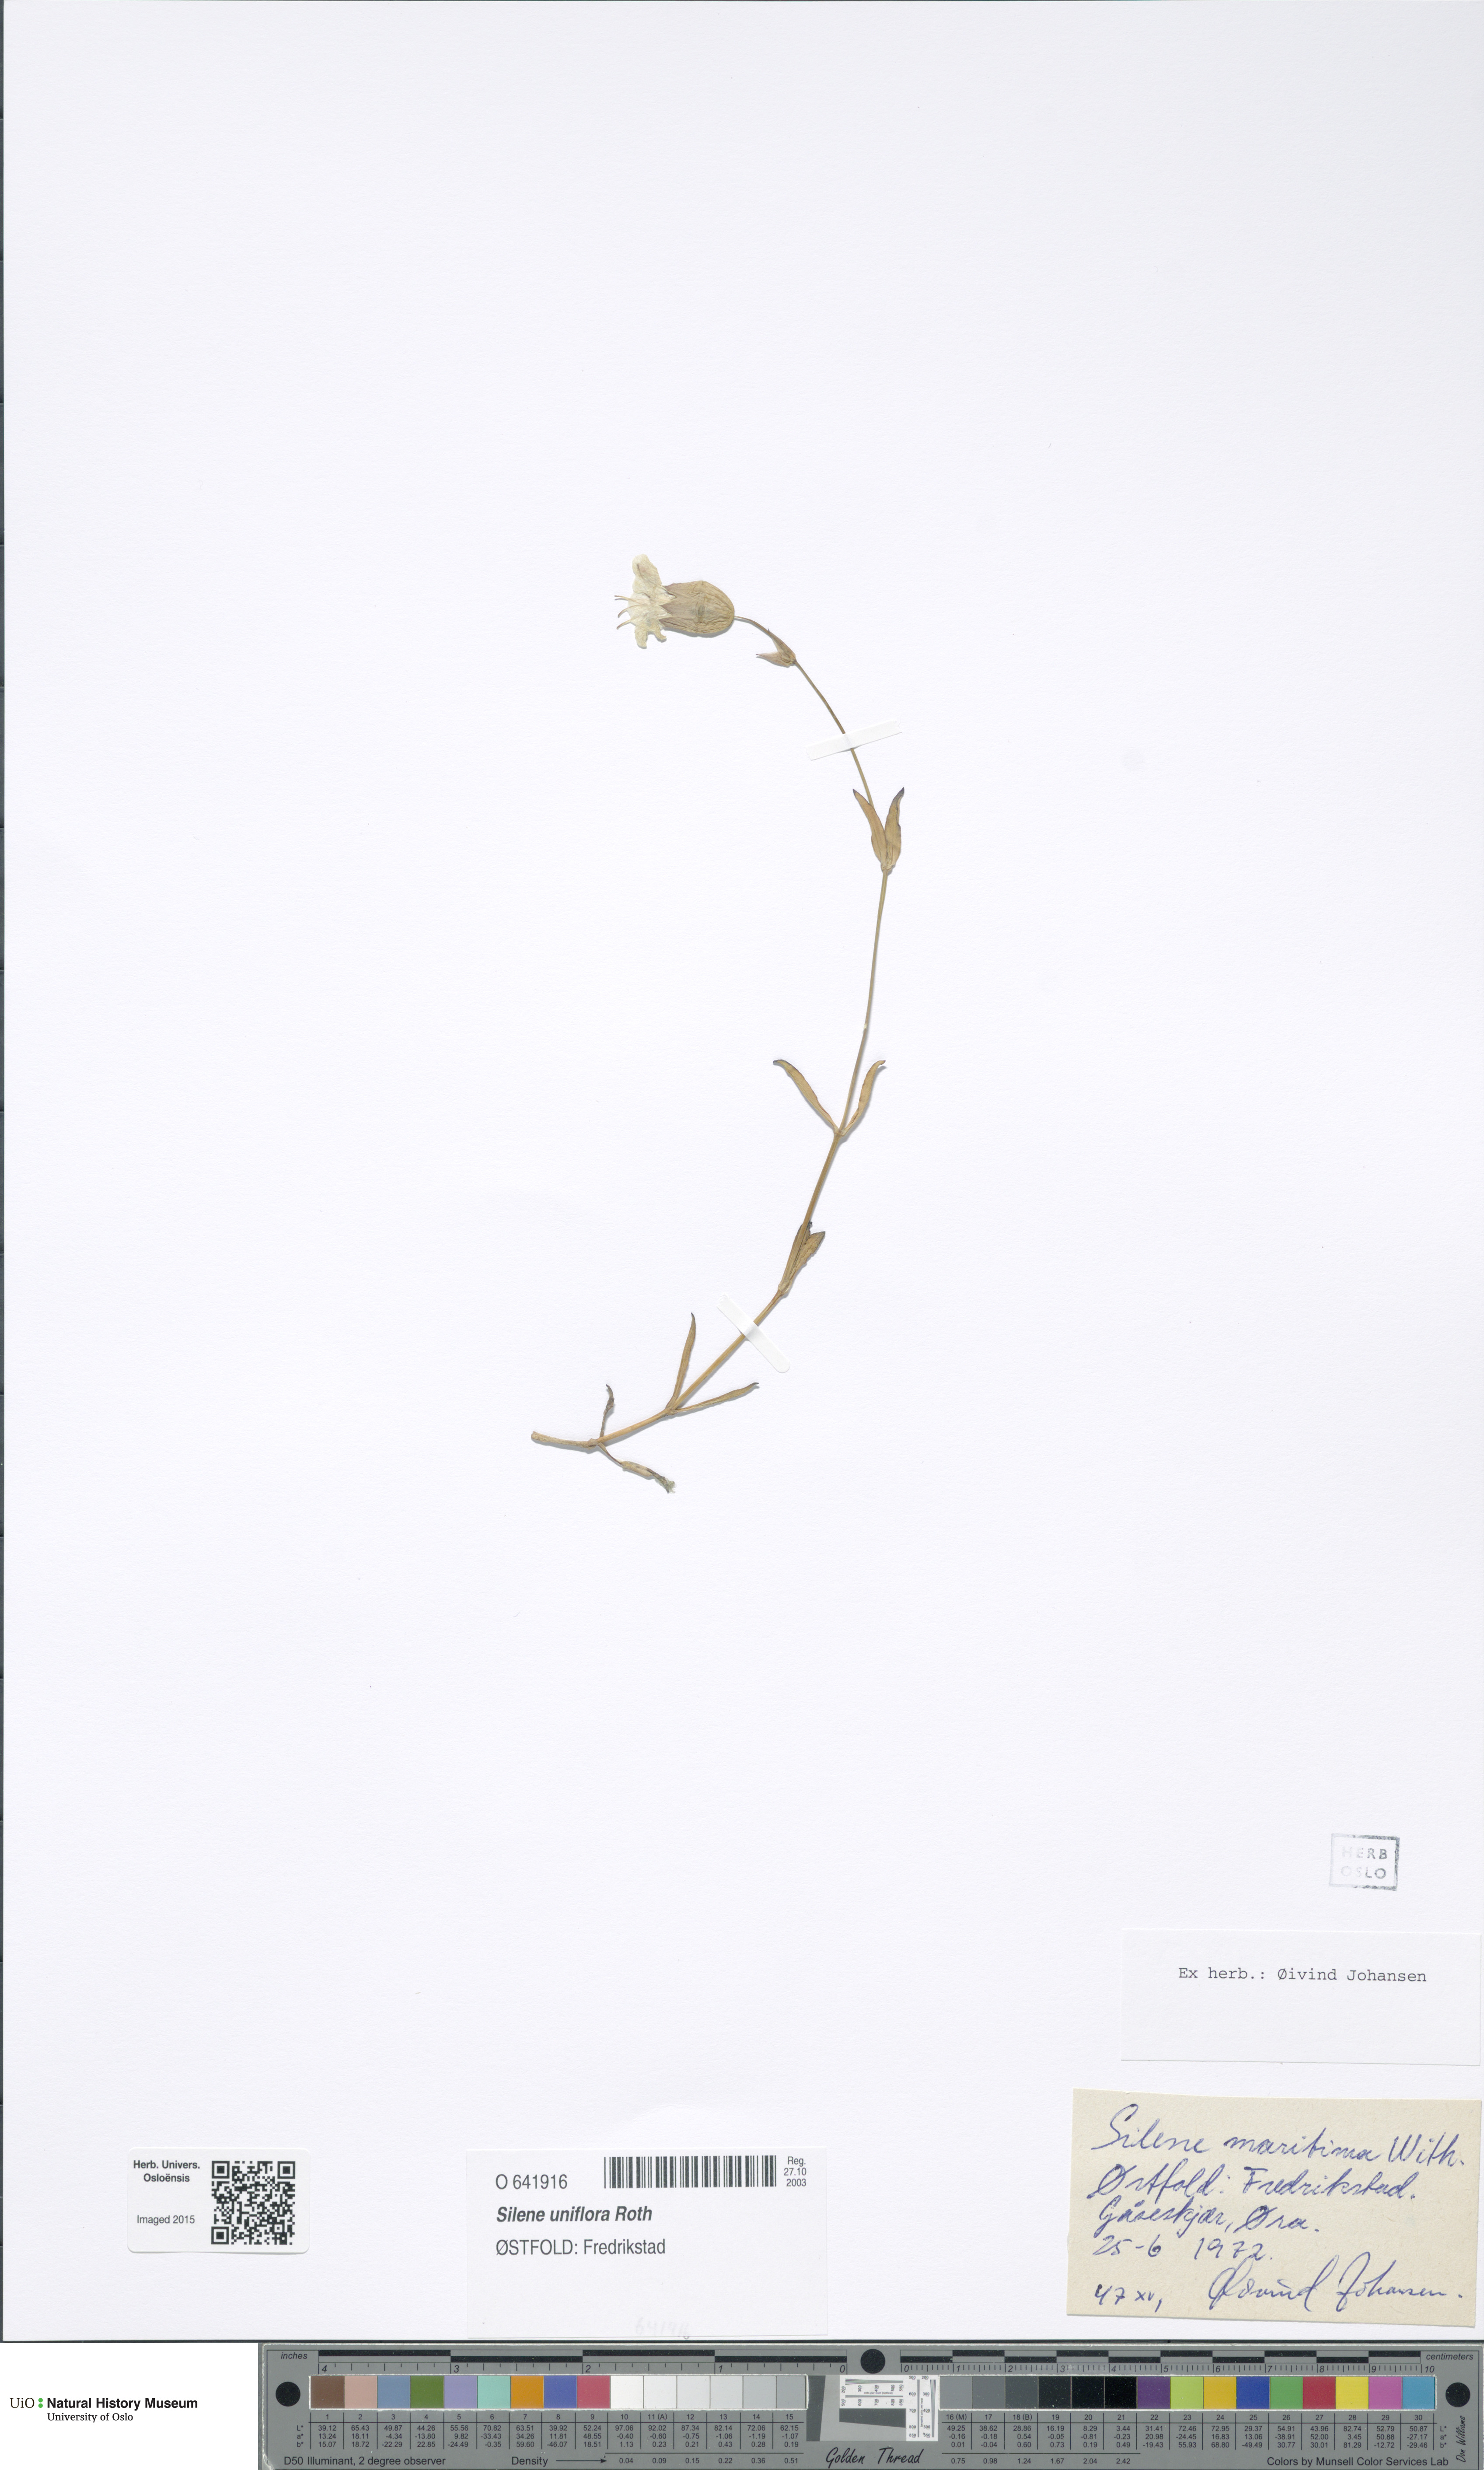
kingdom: Plantae
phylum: Tracheophyta
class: Magnoliopsida
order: Caryophyllales
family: Caryophyllaceae
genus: Silene
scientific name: Silene uniflora
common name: Sea campion
